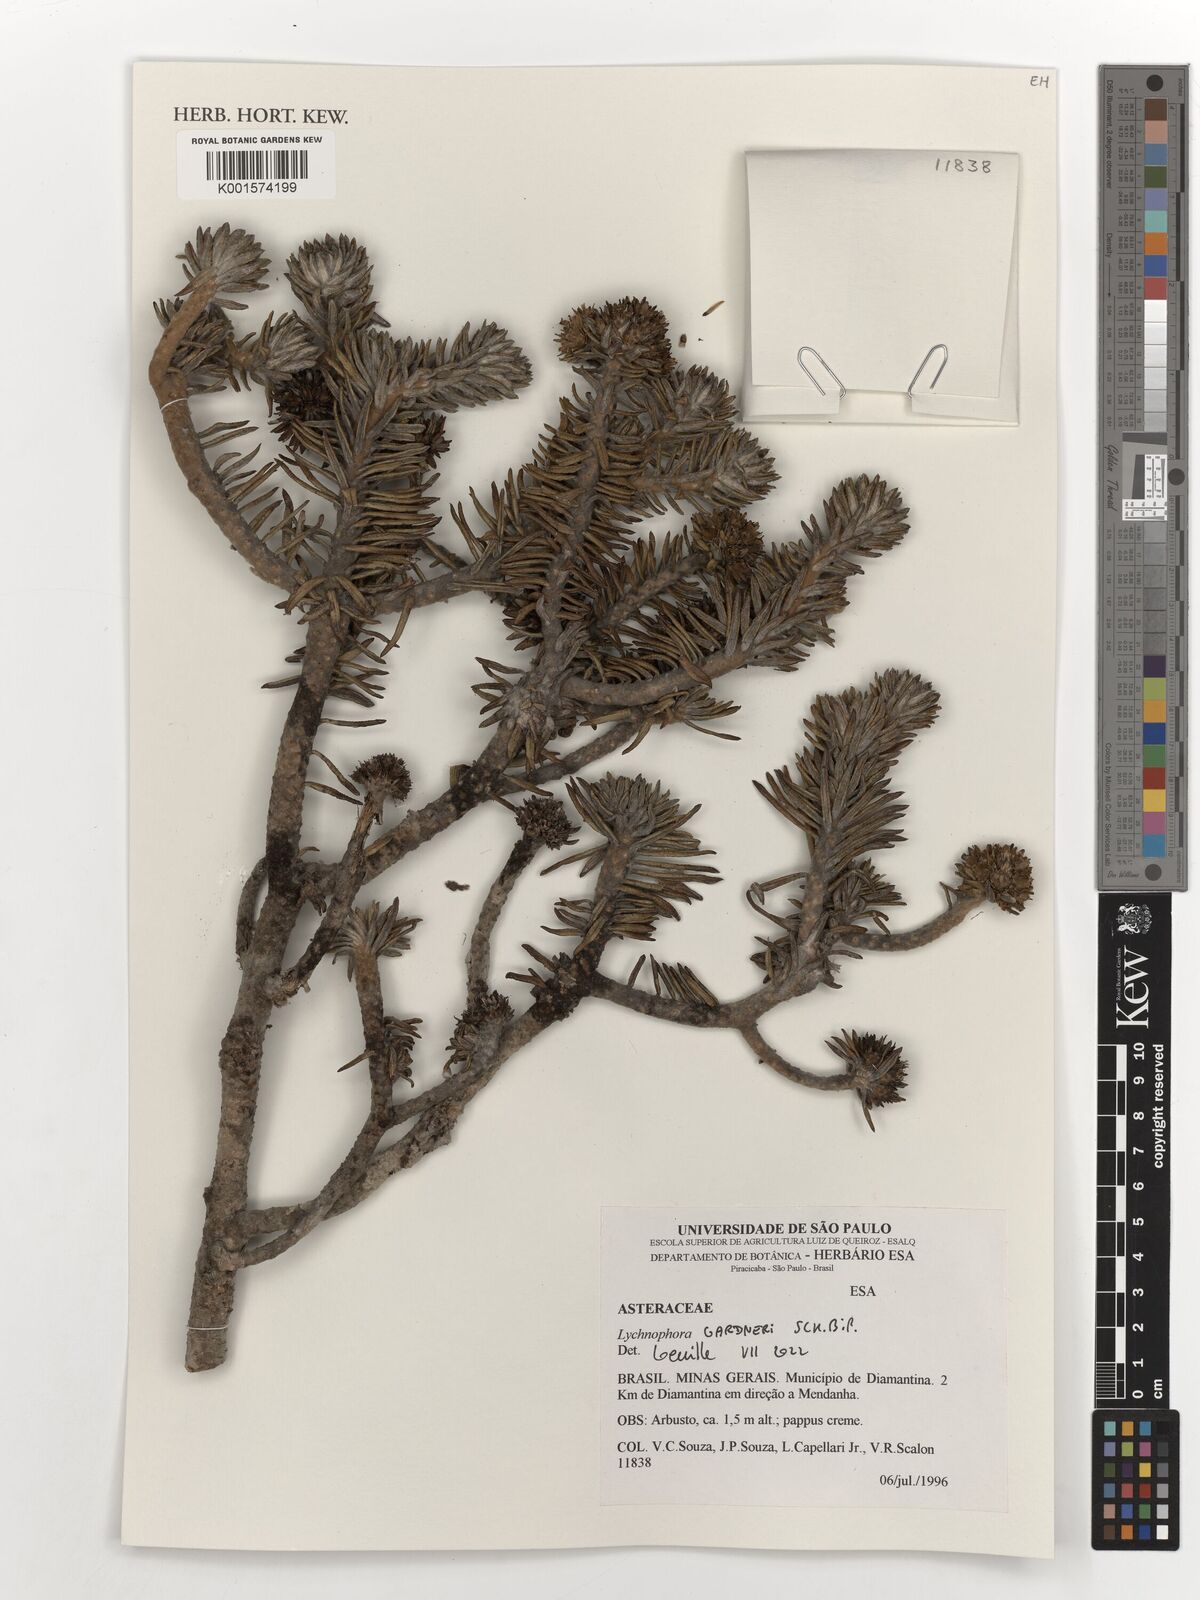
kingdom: Plantae
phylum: Tracheophyta
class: Magnoliopsida
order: Asterales
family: Asteraceae
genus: Lychnophora
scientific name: Lychnophora gardneri
